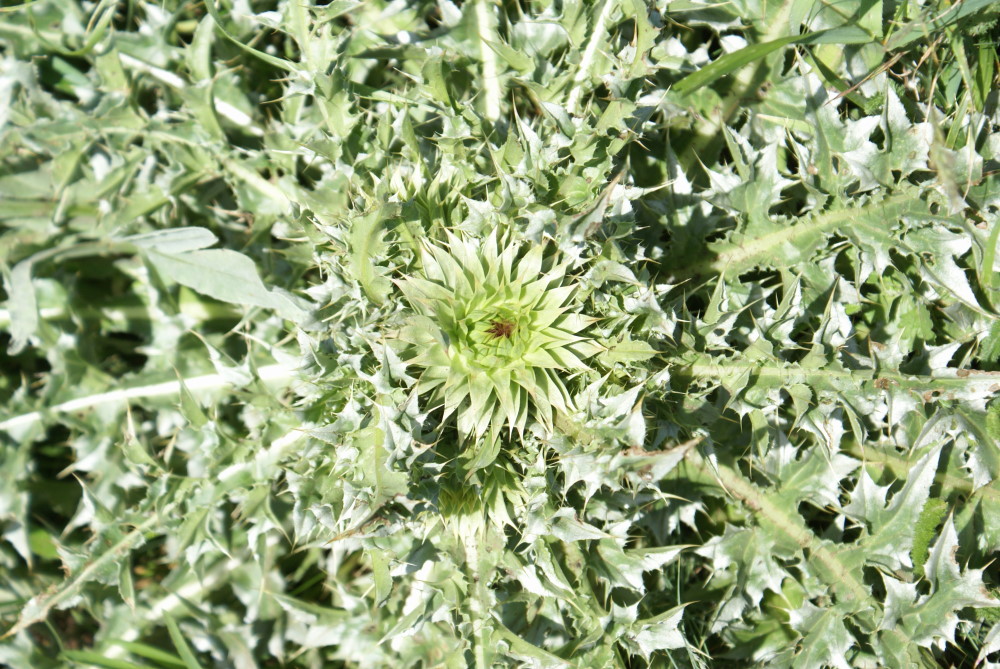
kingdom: Plantae
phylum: Tracheophyta
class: Magnoliopsida
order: Asterales
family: Asteraceae
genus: Carlina
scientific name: Carlina acaulis
